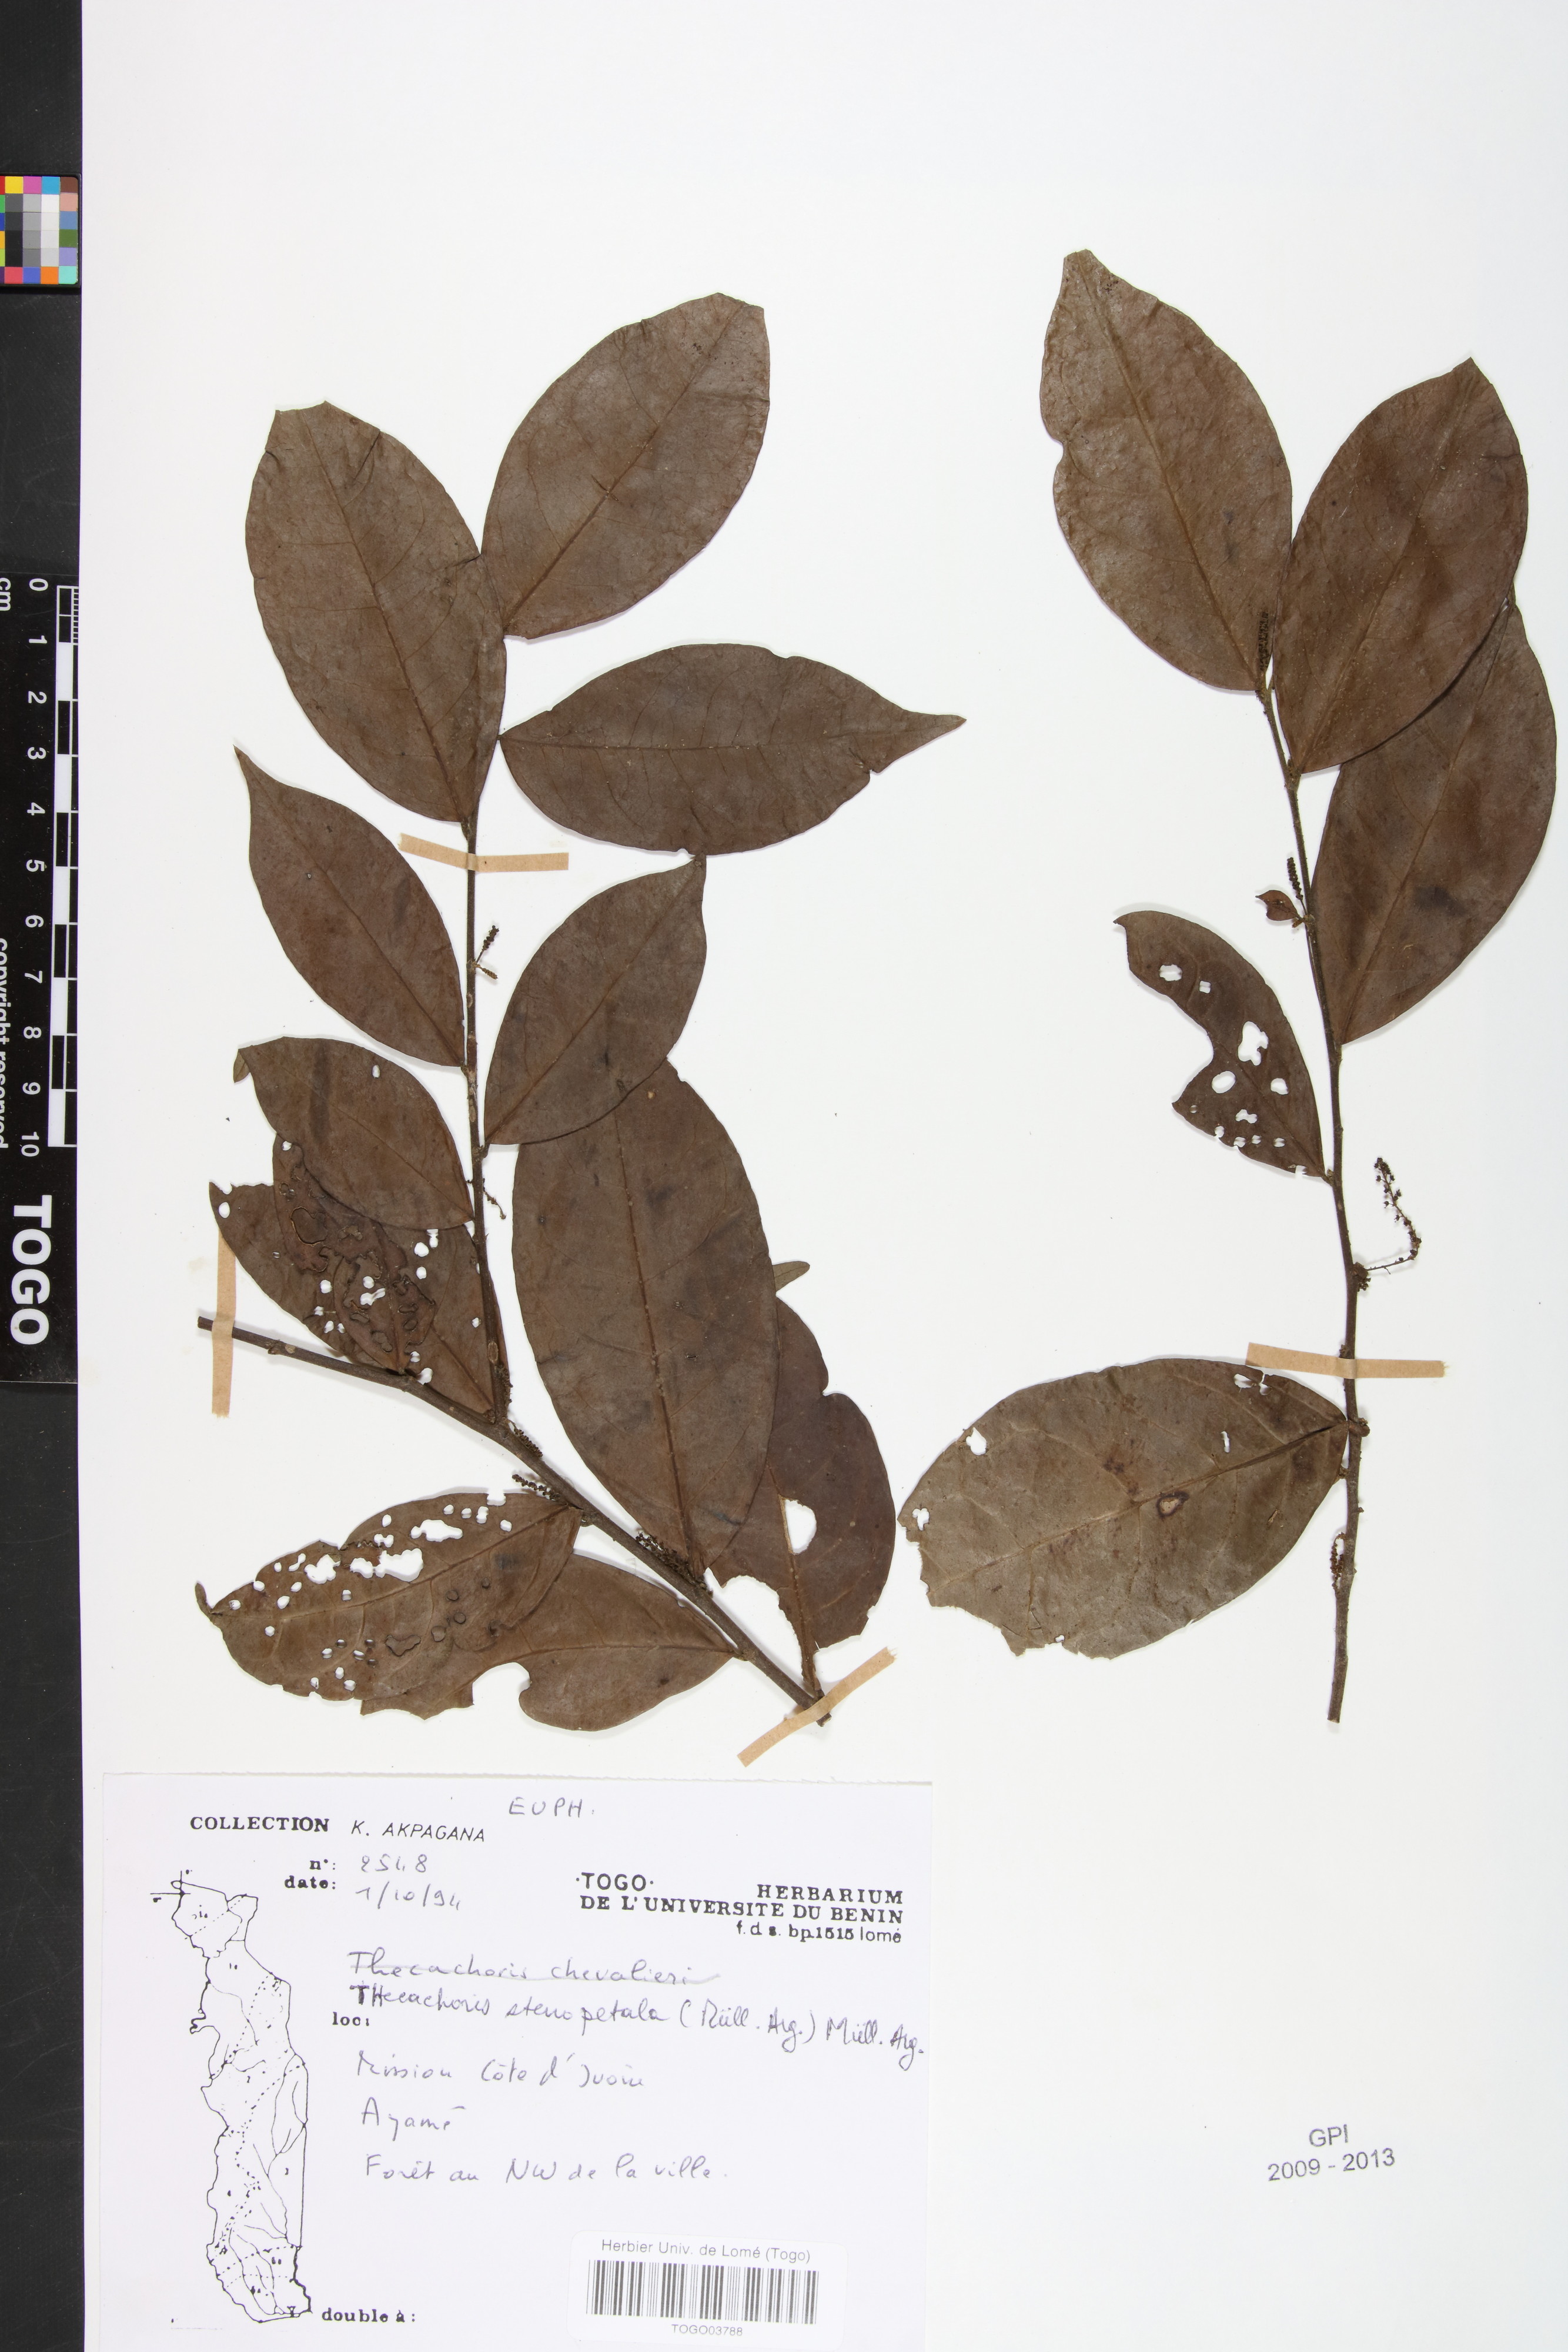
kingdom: Plantae
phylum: Tracheophyta
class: Magnoliopsida
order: Malpighiales
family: Phyllanthaceae
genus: Thecacoris
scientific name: Thecacoris stenopetala
